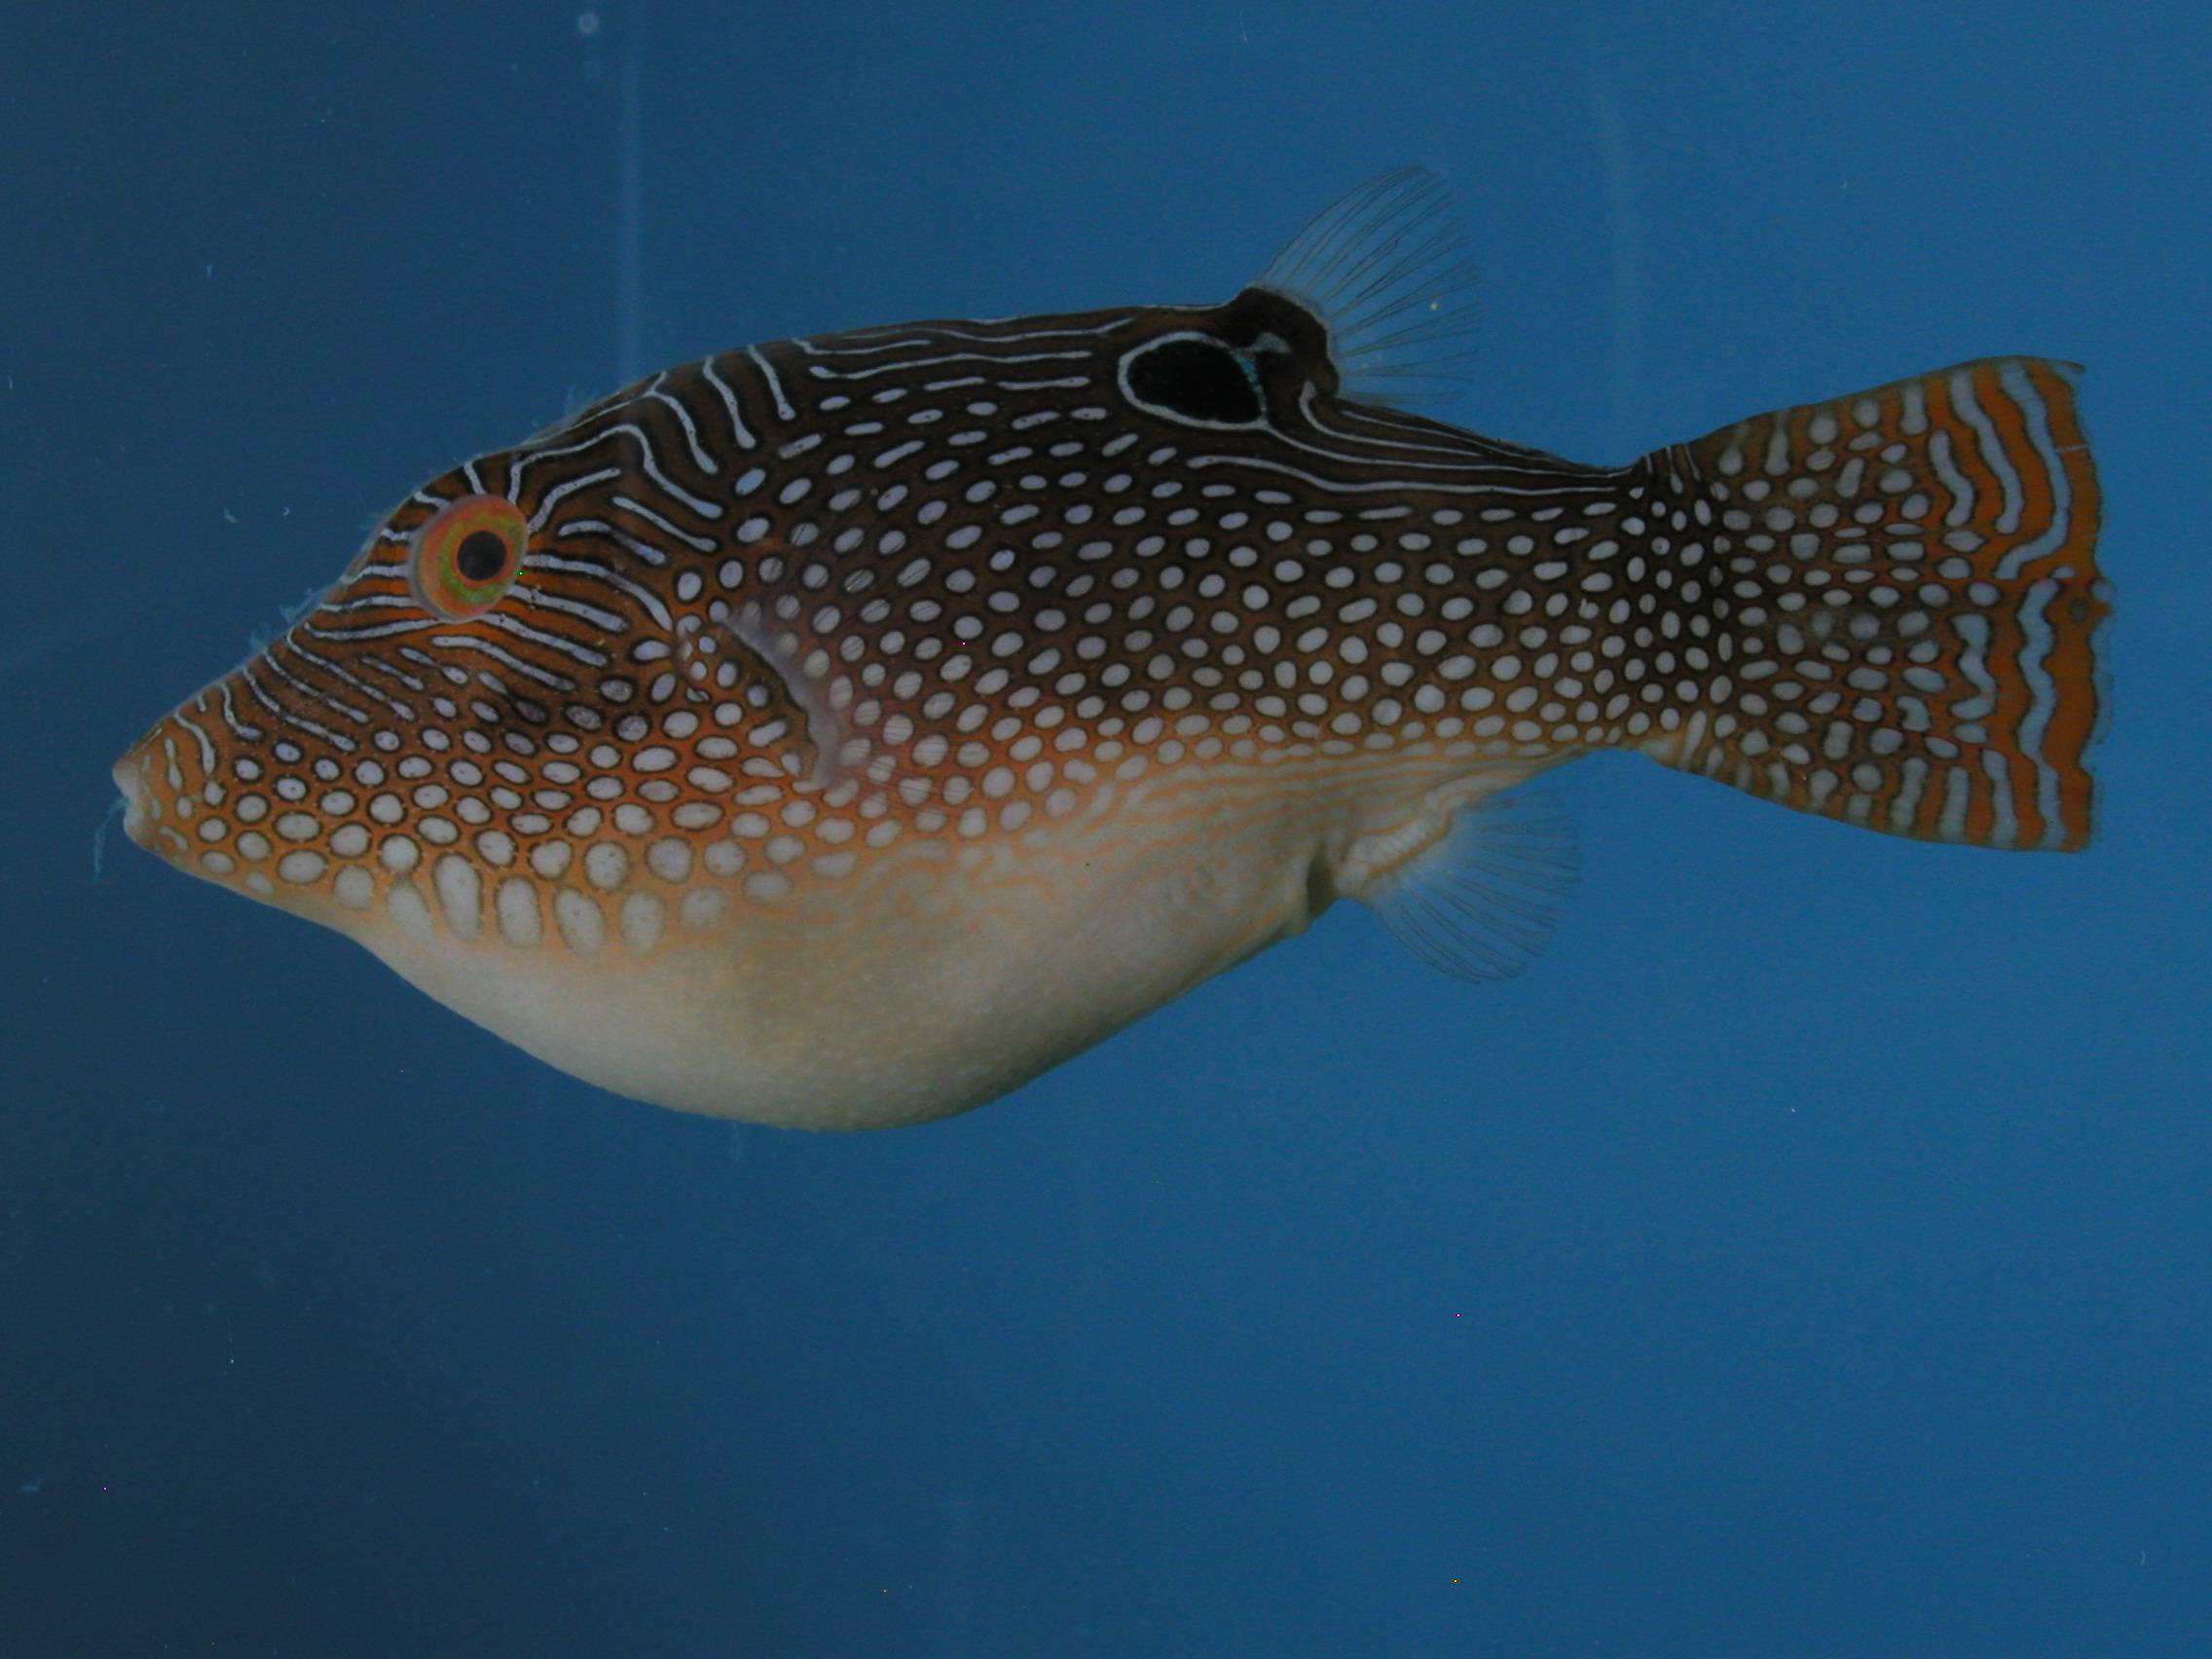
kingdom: Animalia
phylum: Chordata
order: Tetraodontiformes
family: Tetraodontidae
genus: Canthigaster
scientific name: Canthigaster solandri
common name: False-eye toby
